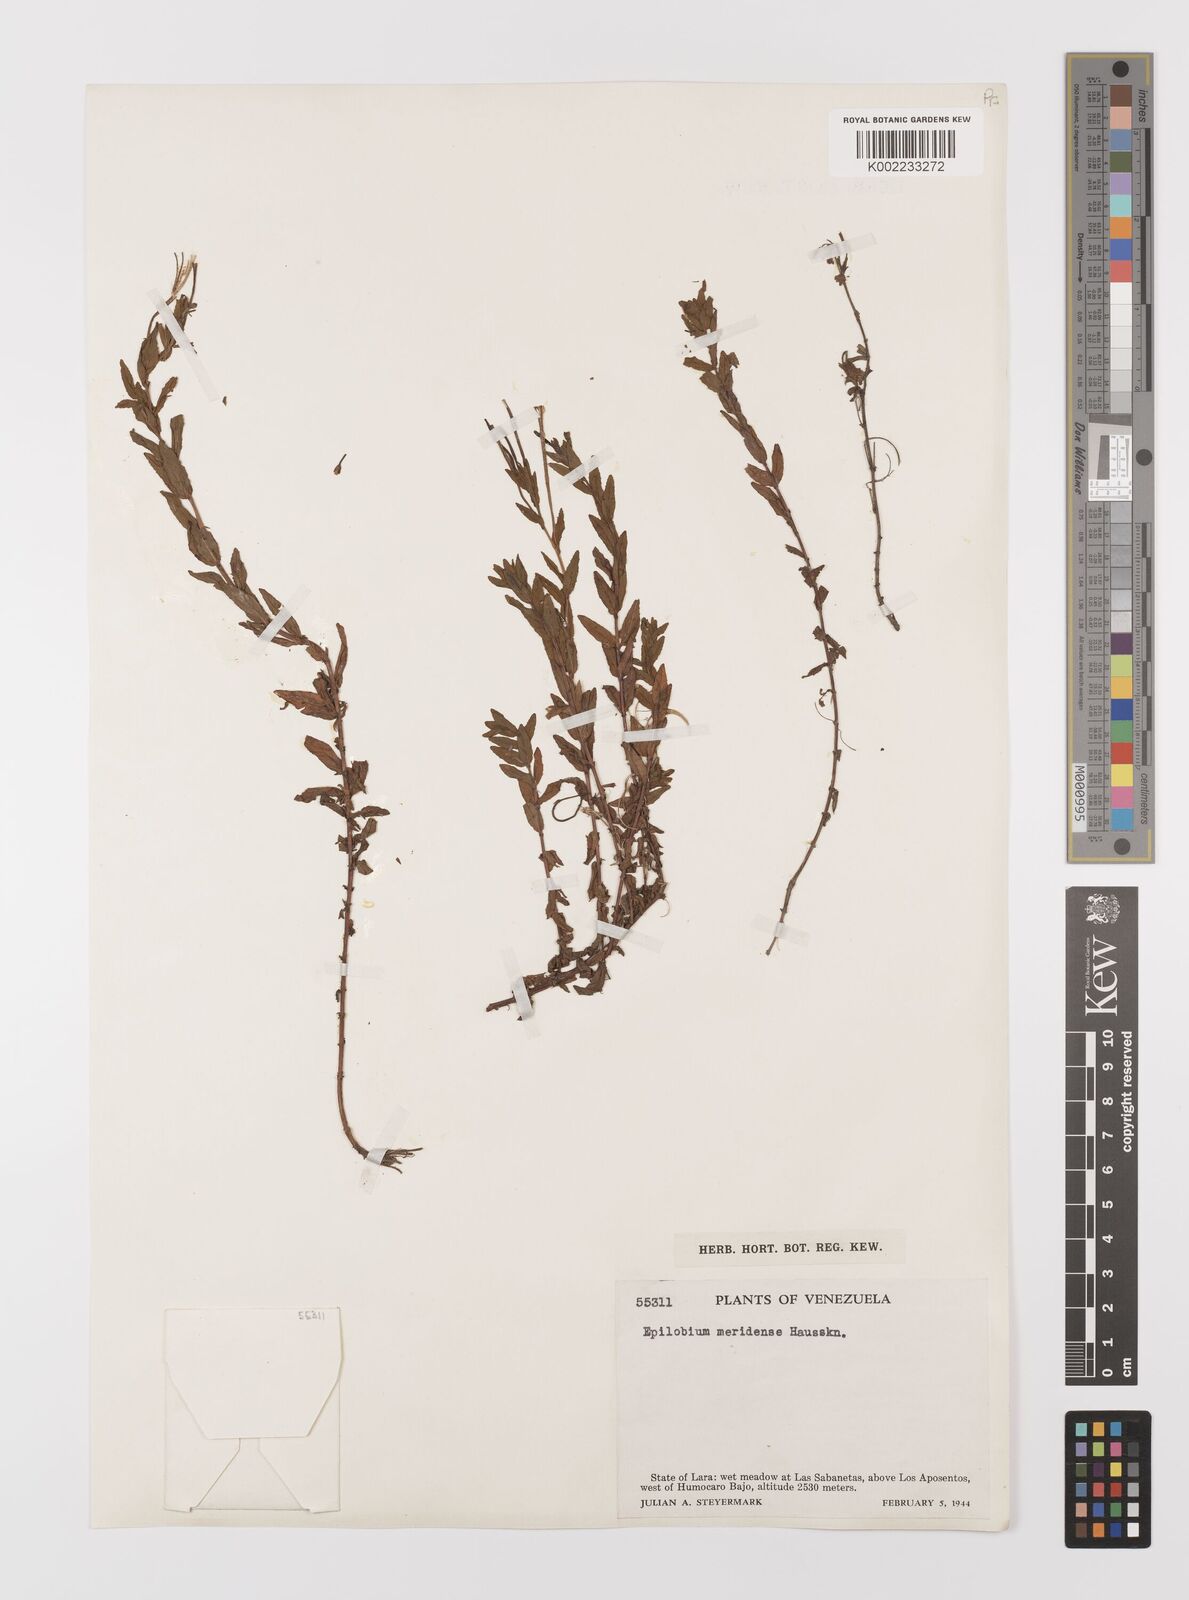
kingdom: Plantae
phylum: Tracheophyta
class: Magnoliopsida
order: Myrtales
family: Onagraceae
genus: Epilobium
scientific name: Epilobium denticulatum
